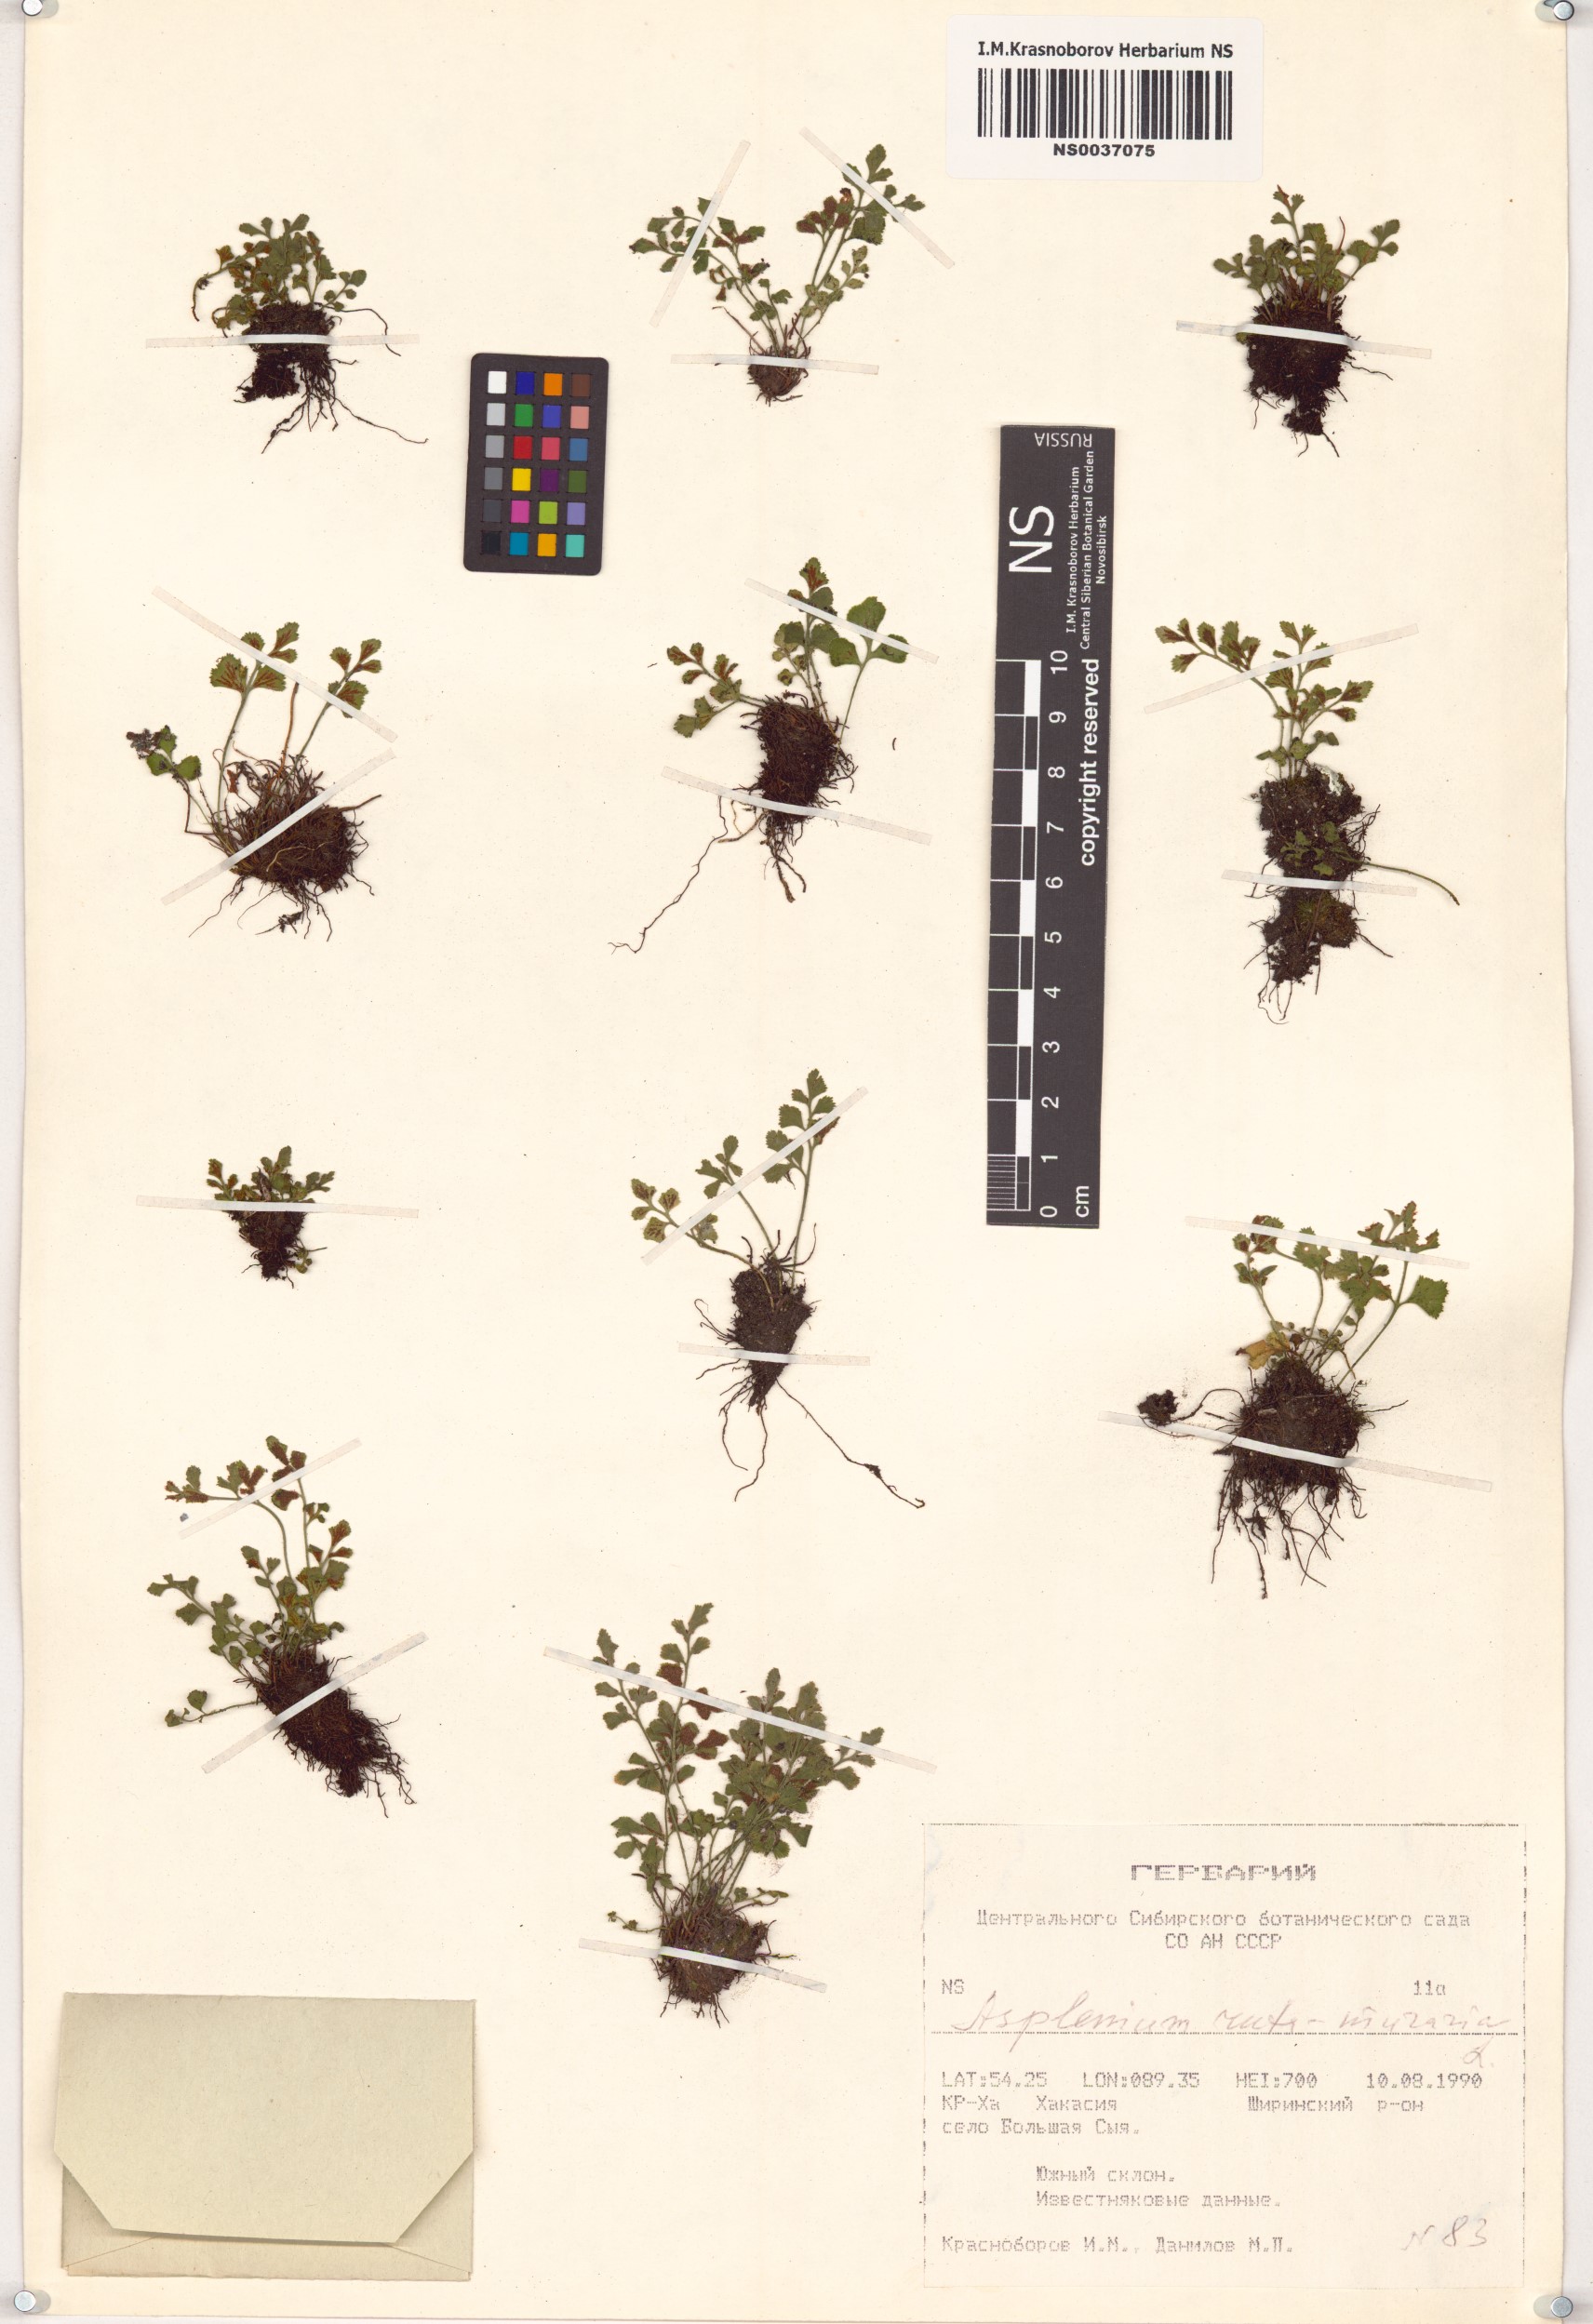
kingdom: Plantae
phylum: Tracheophyta
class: Polypodiopsida
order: Polypodiales
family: Aspleniaceae
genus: Asplenium
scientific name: Asplenium ruta-muraria
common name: Wall-rue
